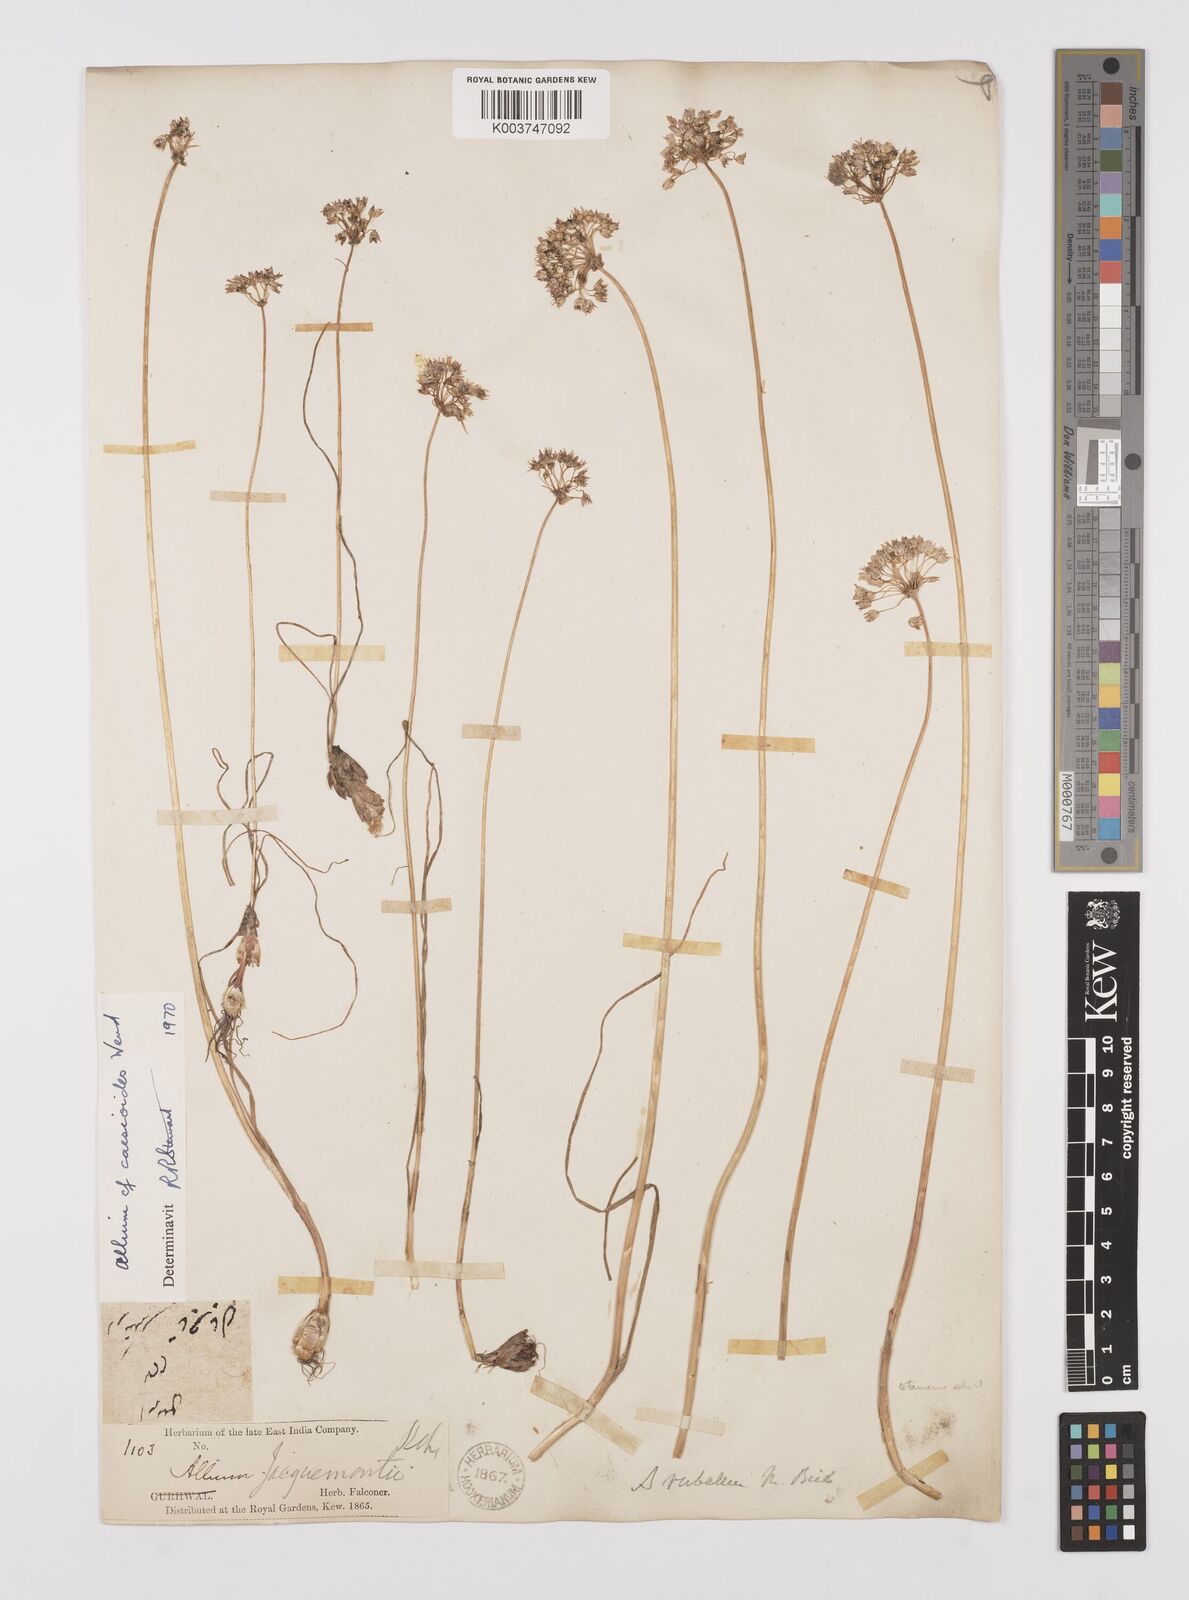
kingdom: Plantae
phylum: Tracheophyta
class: Liliopsida
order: Asparagales
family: Amaryllidaceae
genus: Allium
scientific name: Allium caesioides
